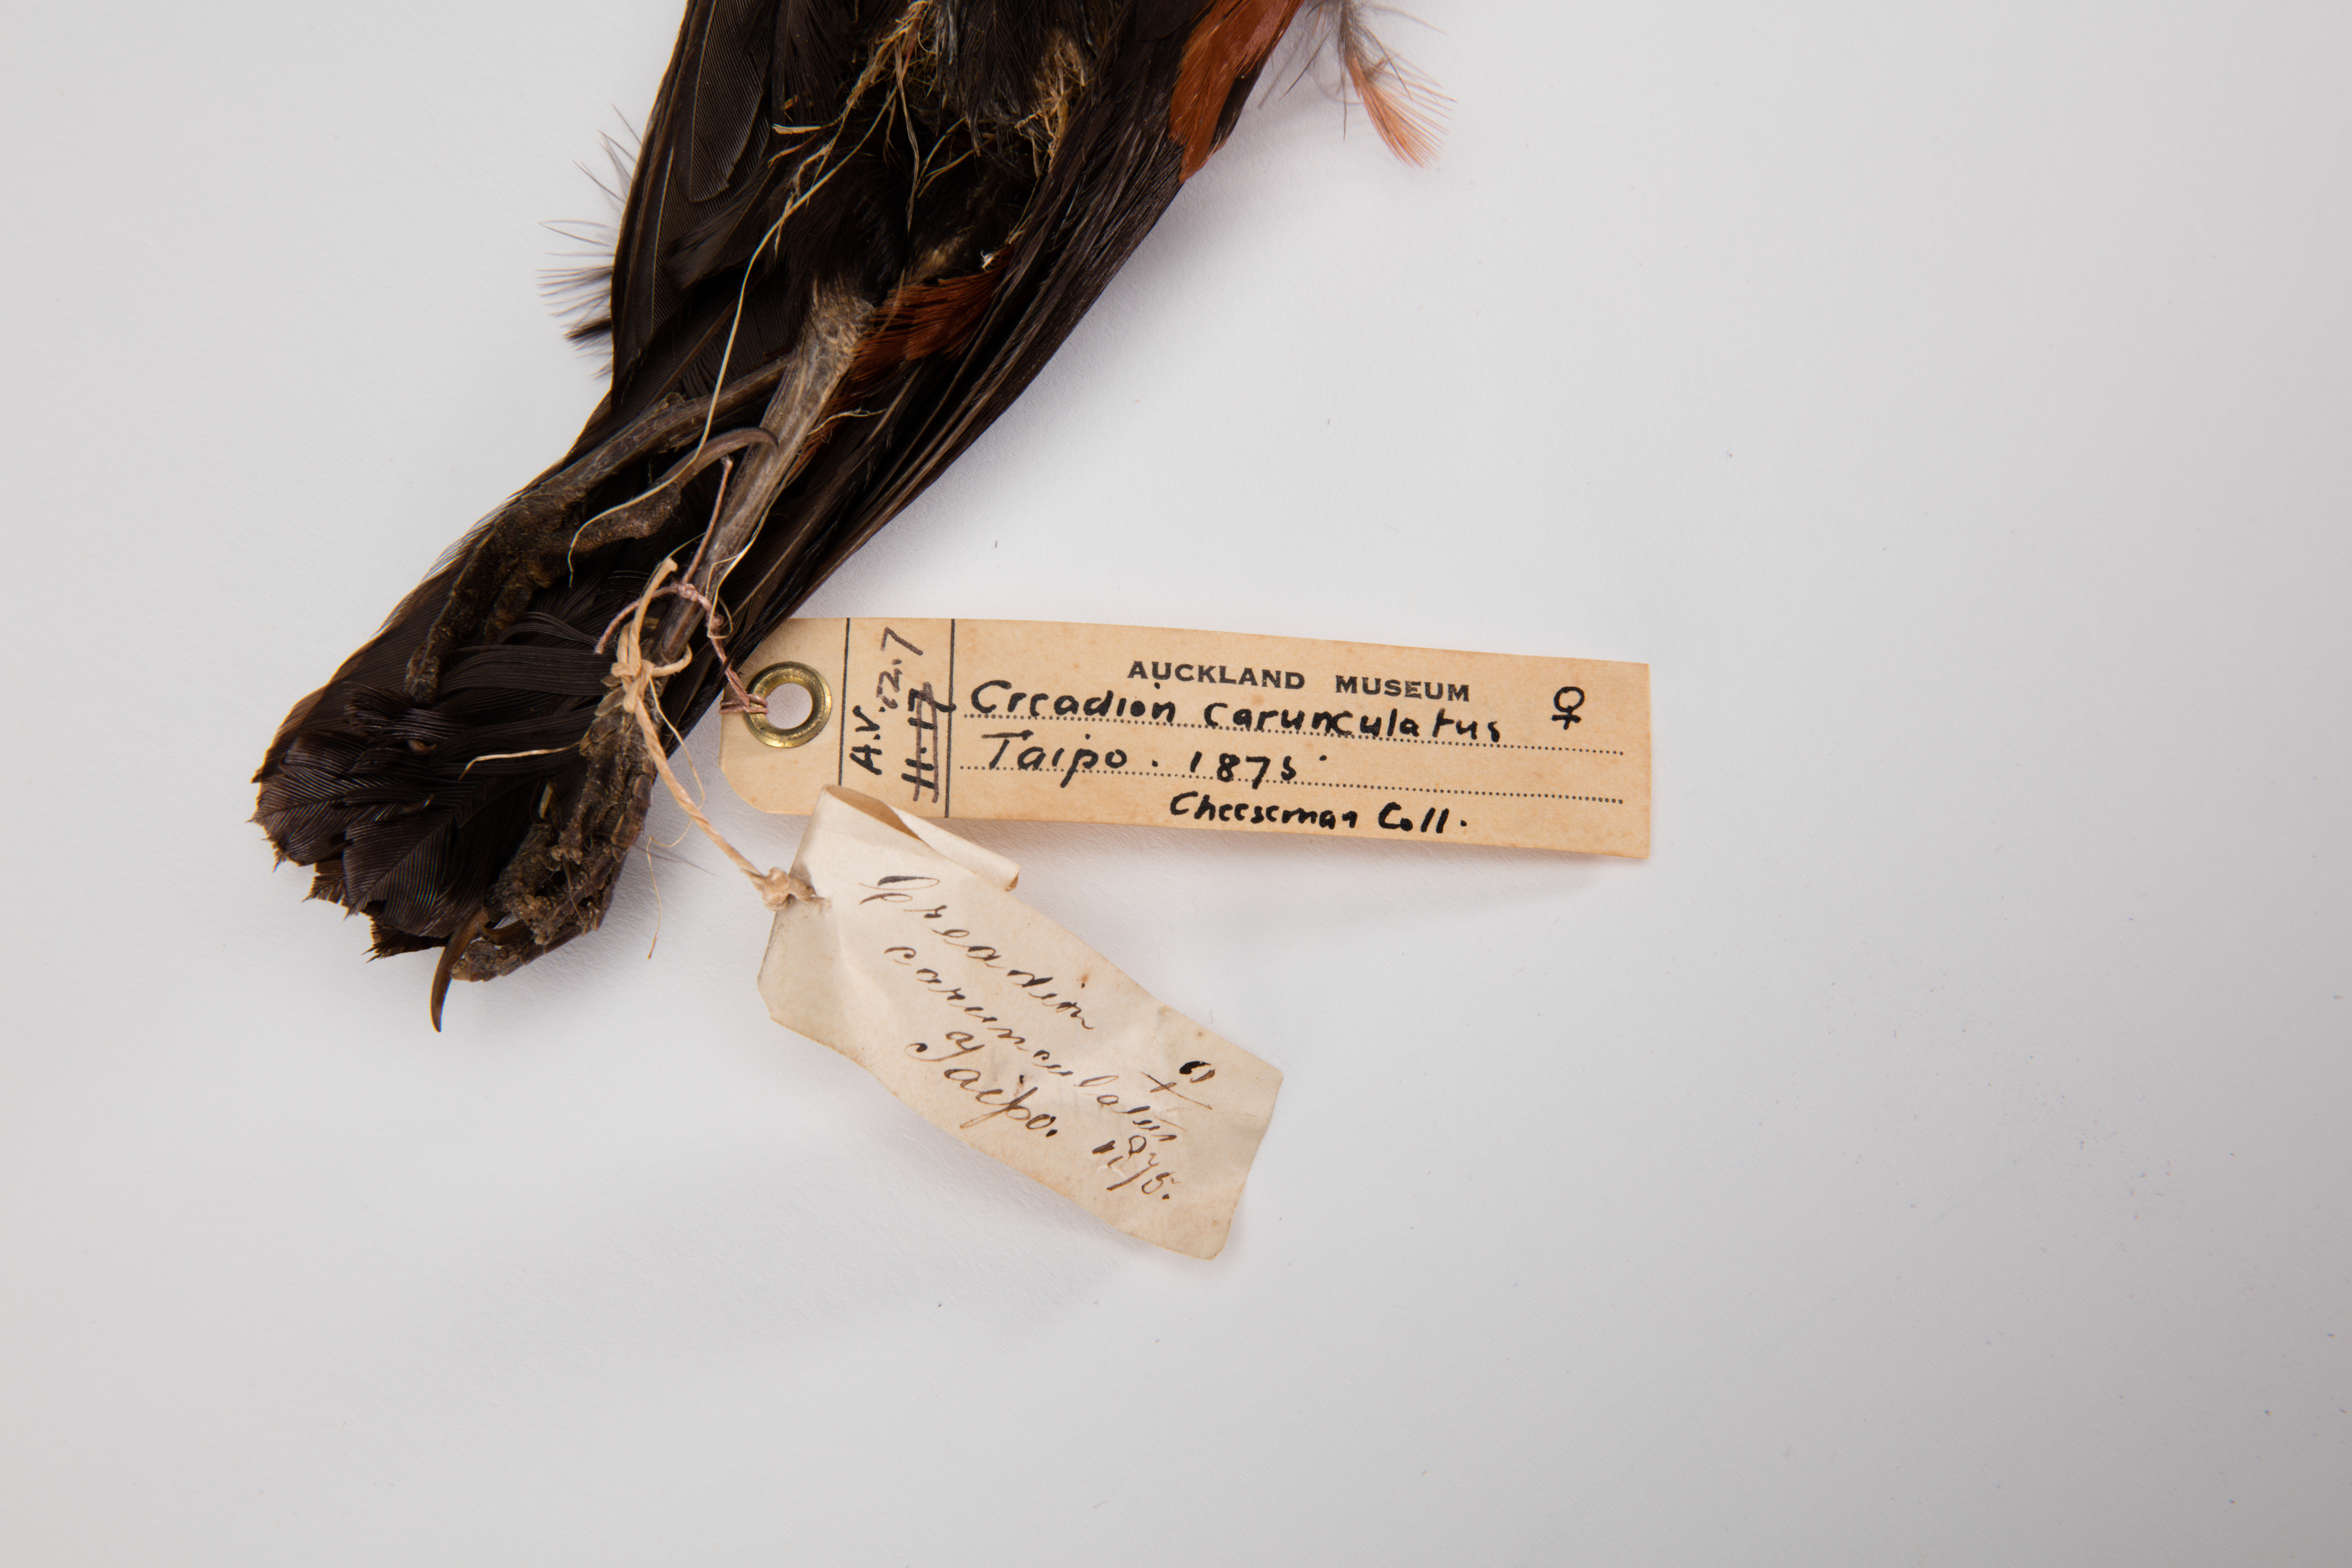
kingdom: Animalia
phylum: Chordata
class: Aves
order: Passeriformes
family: Callaeatidae
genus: Philesturnus
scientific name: Philesturnus carunculatus
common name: South island saddleback
